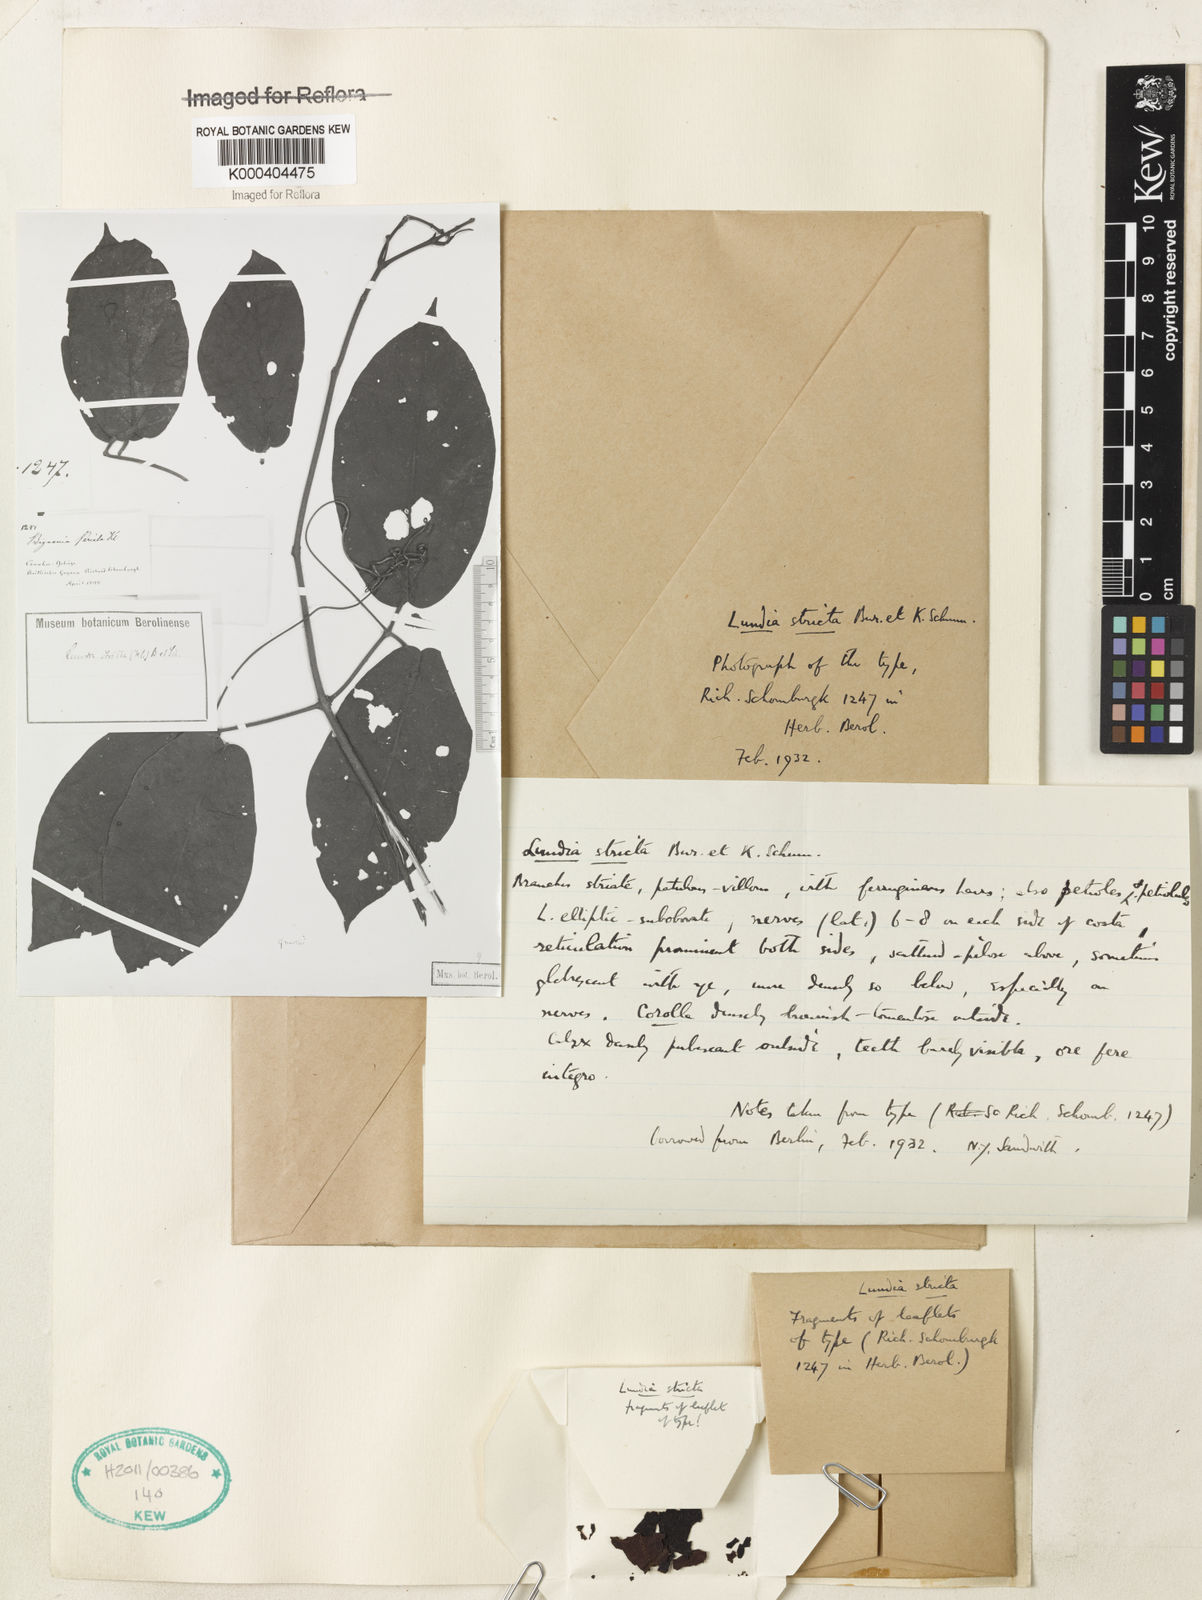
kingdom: Plantae
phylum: Tracheophyta
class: Magnoliopsida
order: Lamiales
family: Bignoniaceae
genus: Lundia
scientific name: Lundia densiflora
